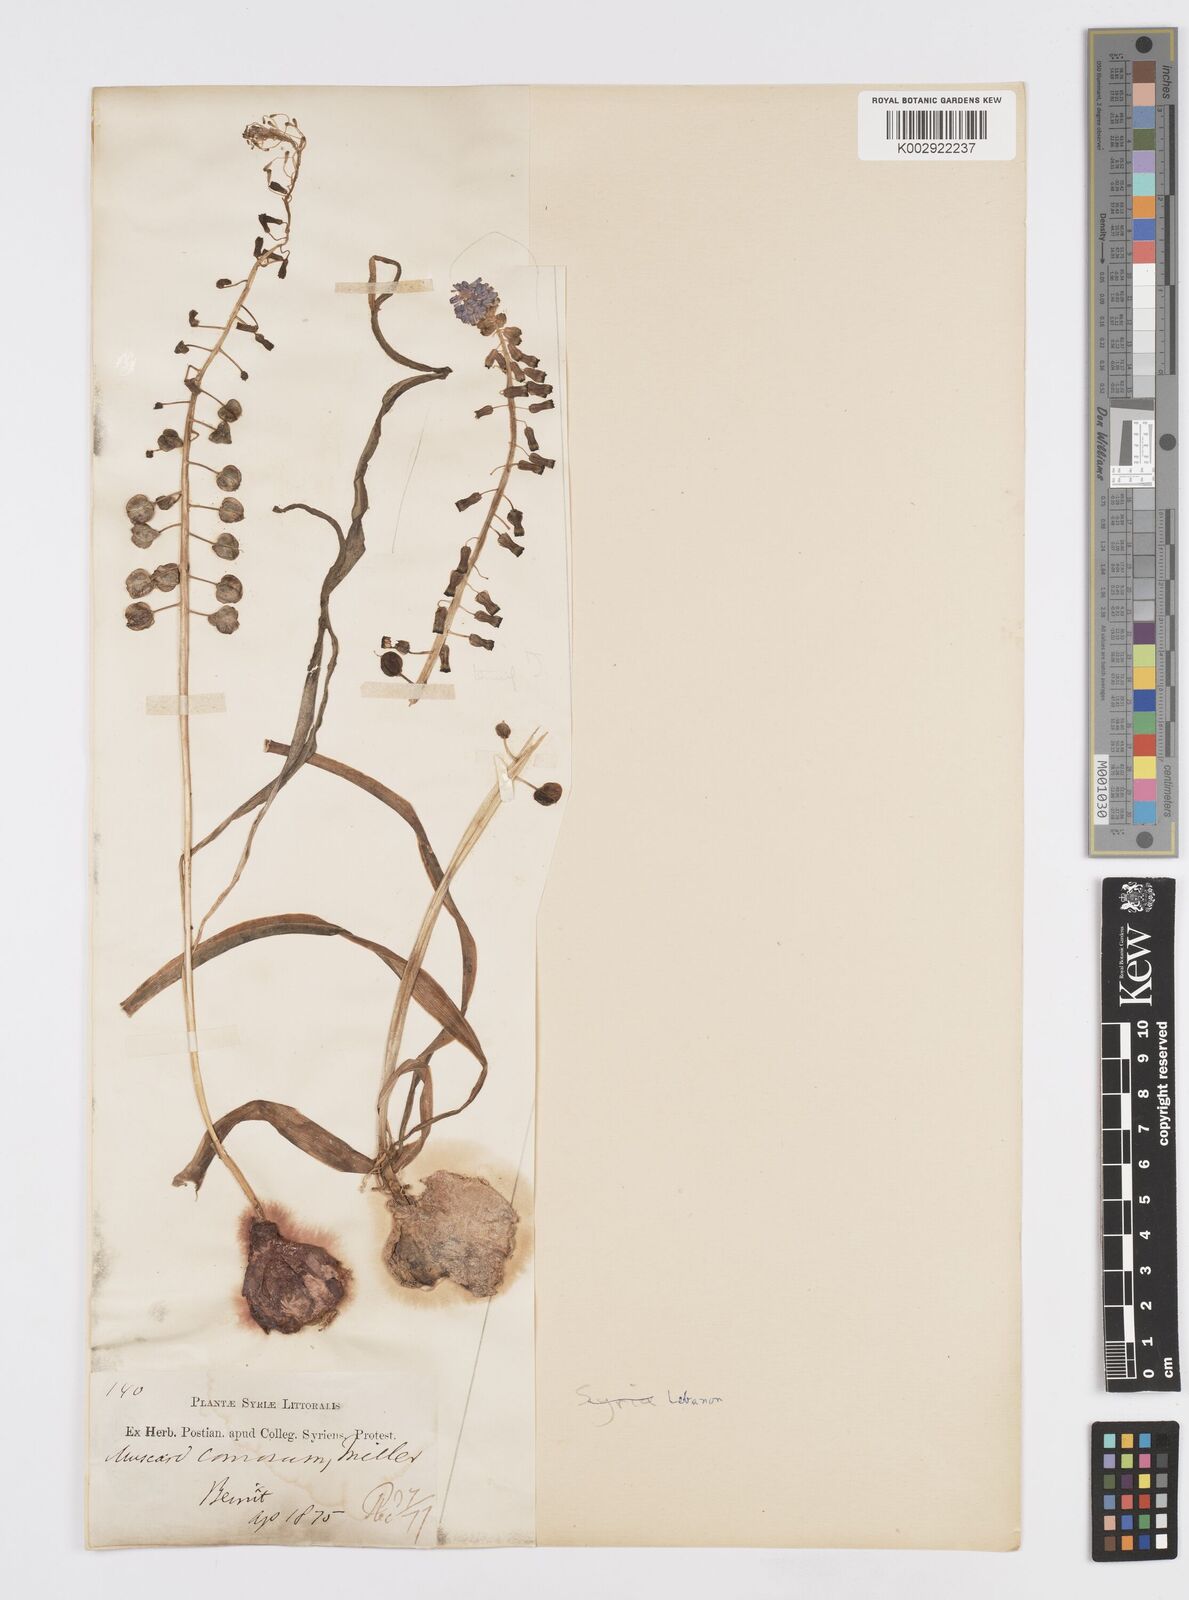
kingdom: Plantae
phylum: Tracheophyta
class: Liliopsida
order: Asparagales
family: Asparagaceae
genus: Muscari
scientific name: Muscari comosum
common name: Tassel hyacinth
